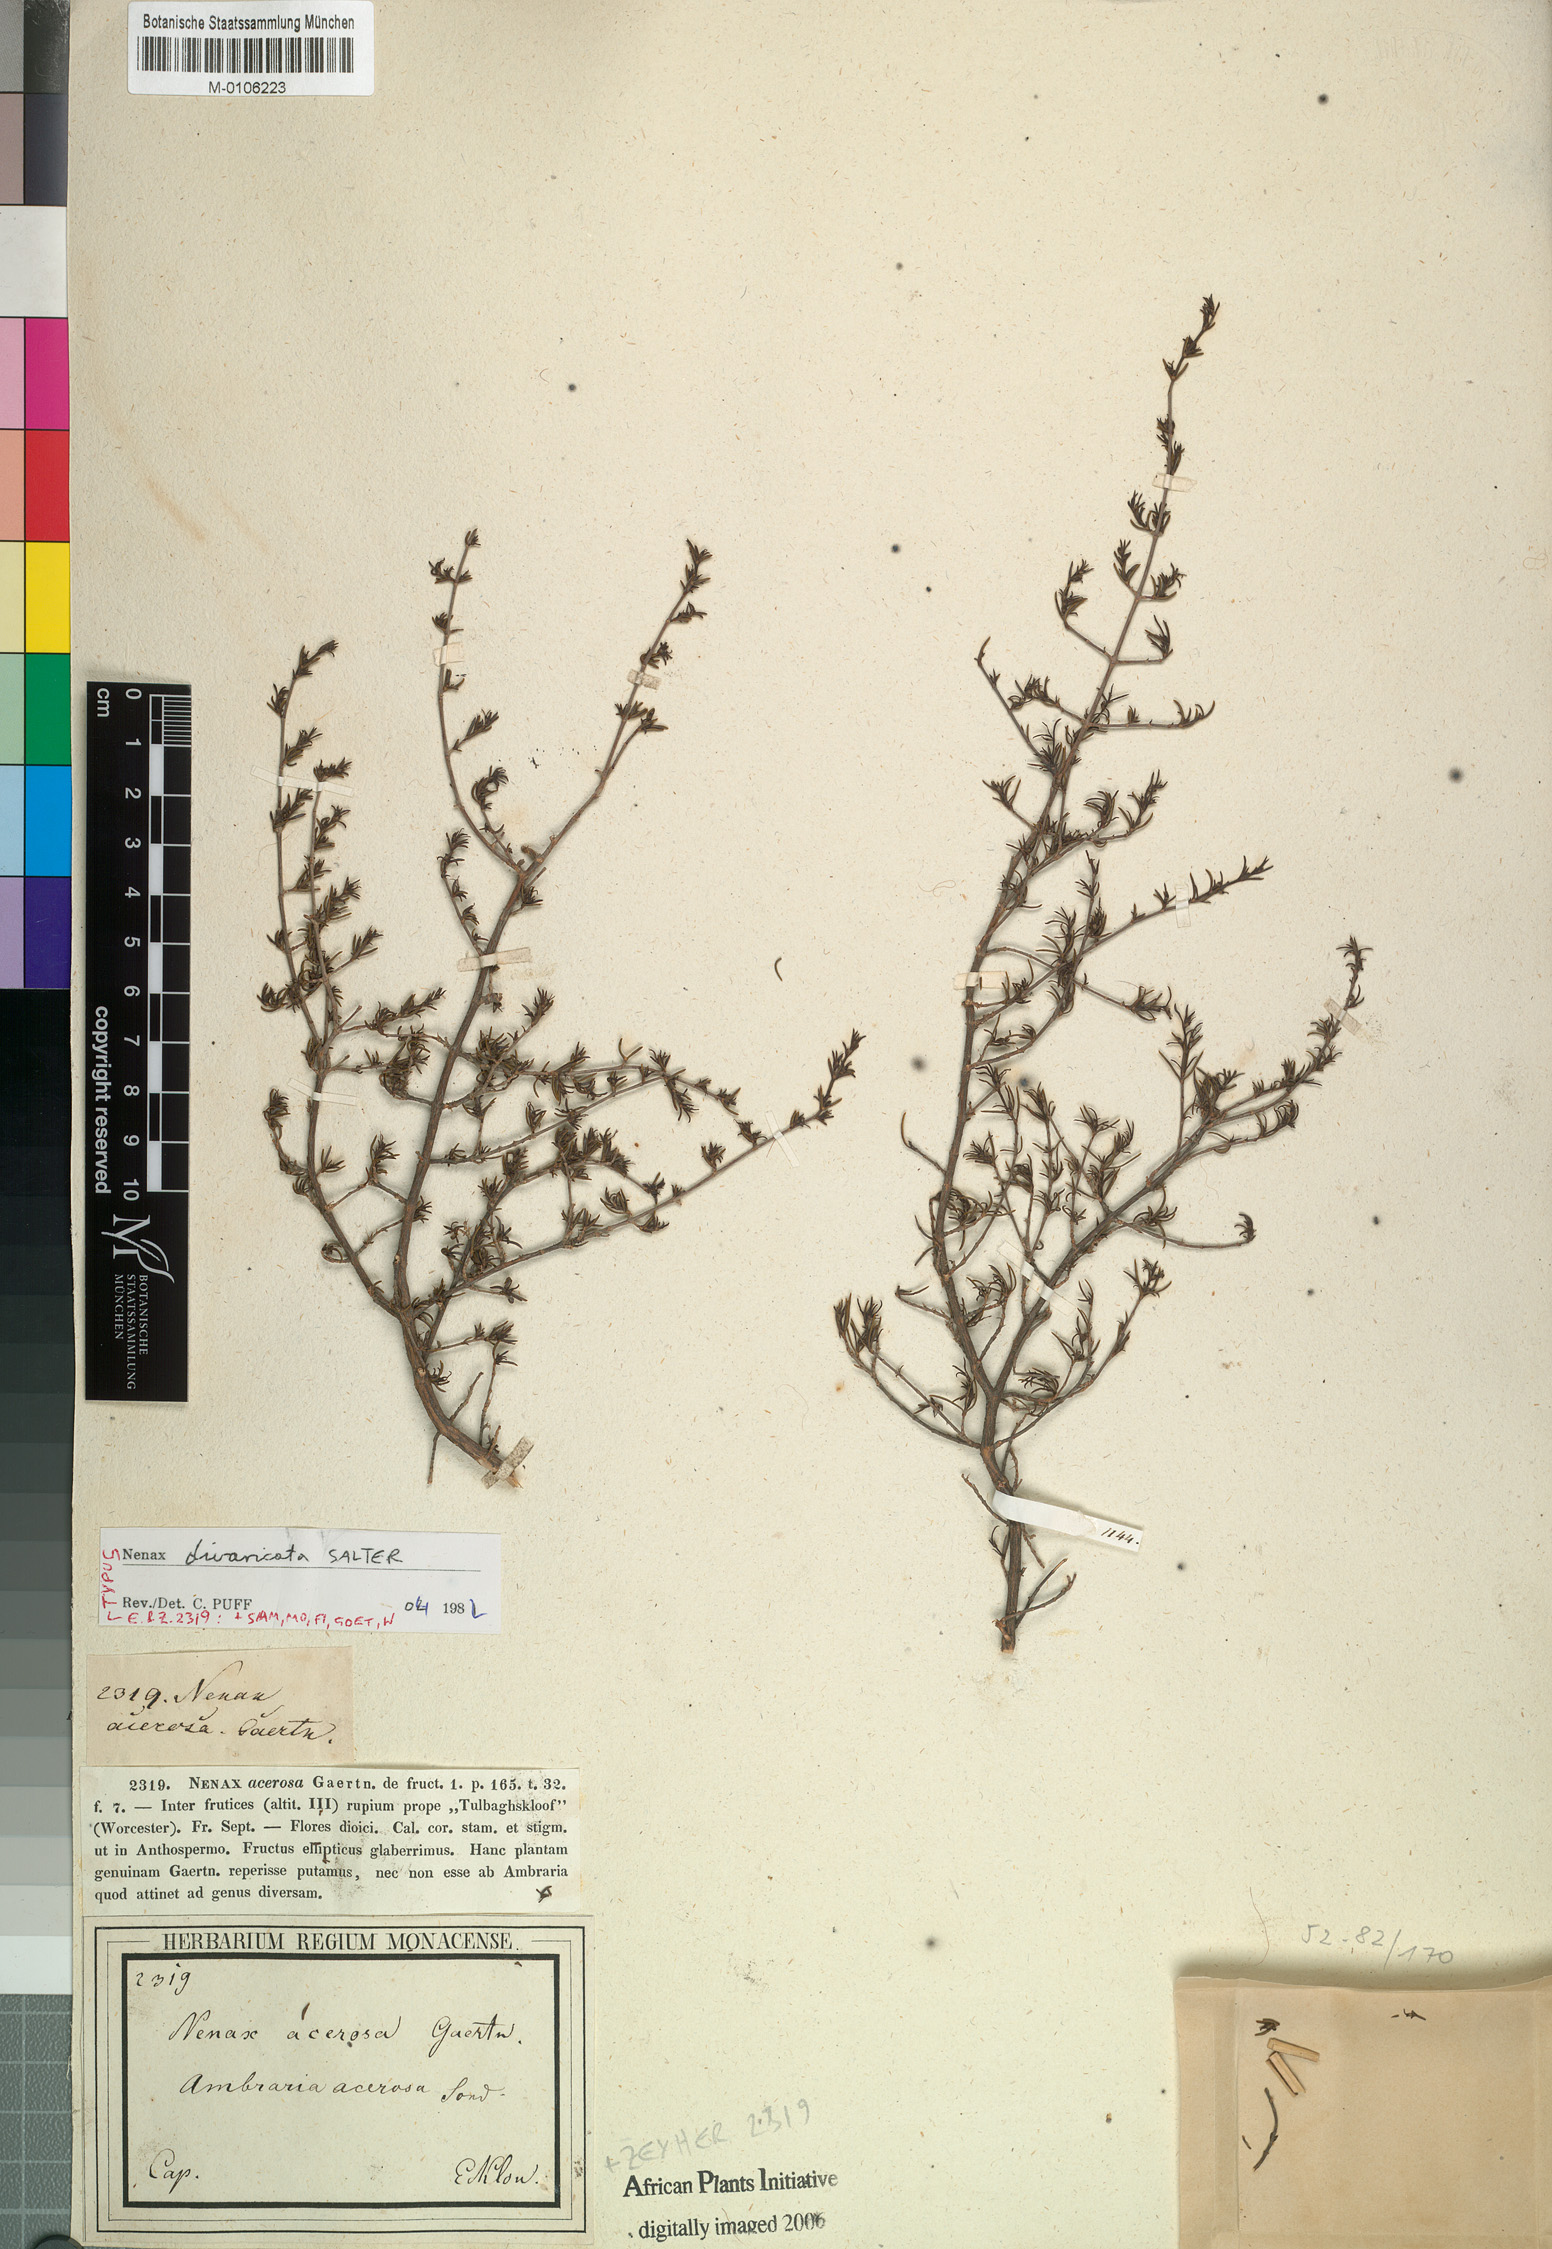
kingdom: Plantae
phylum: Tracheophyta
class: Magnoliopsida
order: Gentianales
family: Rubiaceae
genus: Nenax
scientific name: Nenax divaricata
